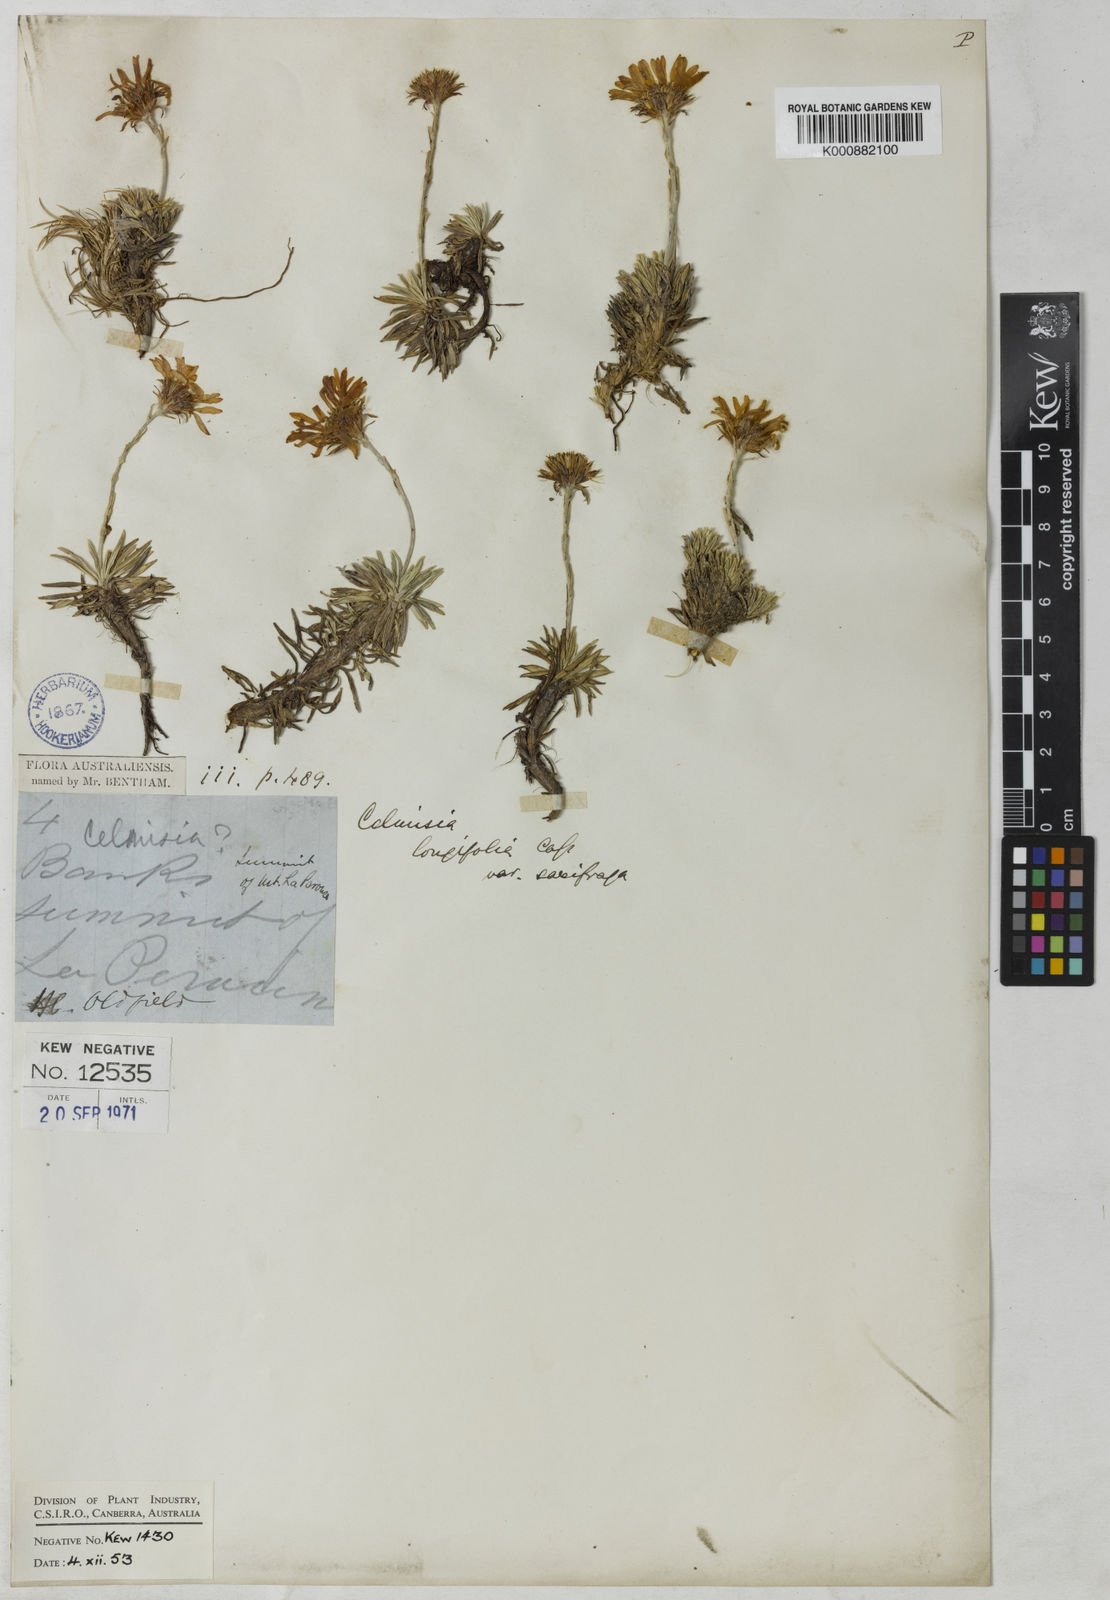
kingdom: Plantae
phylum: Tracheophyta
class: Magnoliopsida
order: Asterales
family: Asteraceae
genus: Celmisia
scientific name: Celmisia saxifraga
